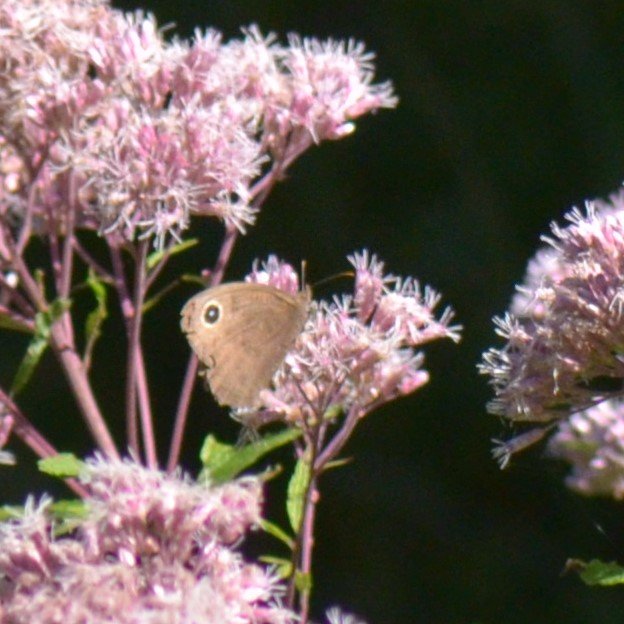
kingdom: Animalia
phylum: Arthropoda
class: Insecta
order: Lepidoptera
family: Nymphalidae
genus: Cercyonis
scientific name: Cercyonis pegala
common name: Common Wood-Nymph
